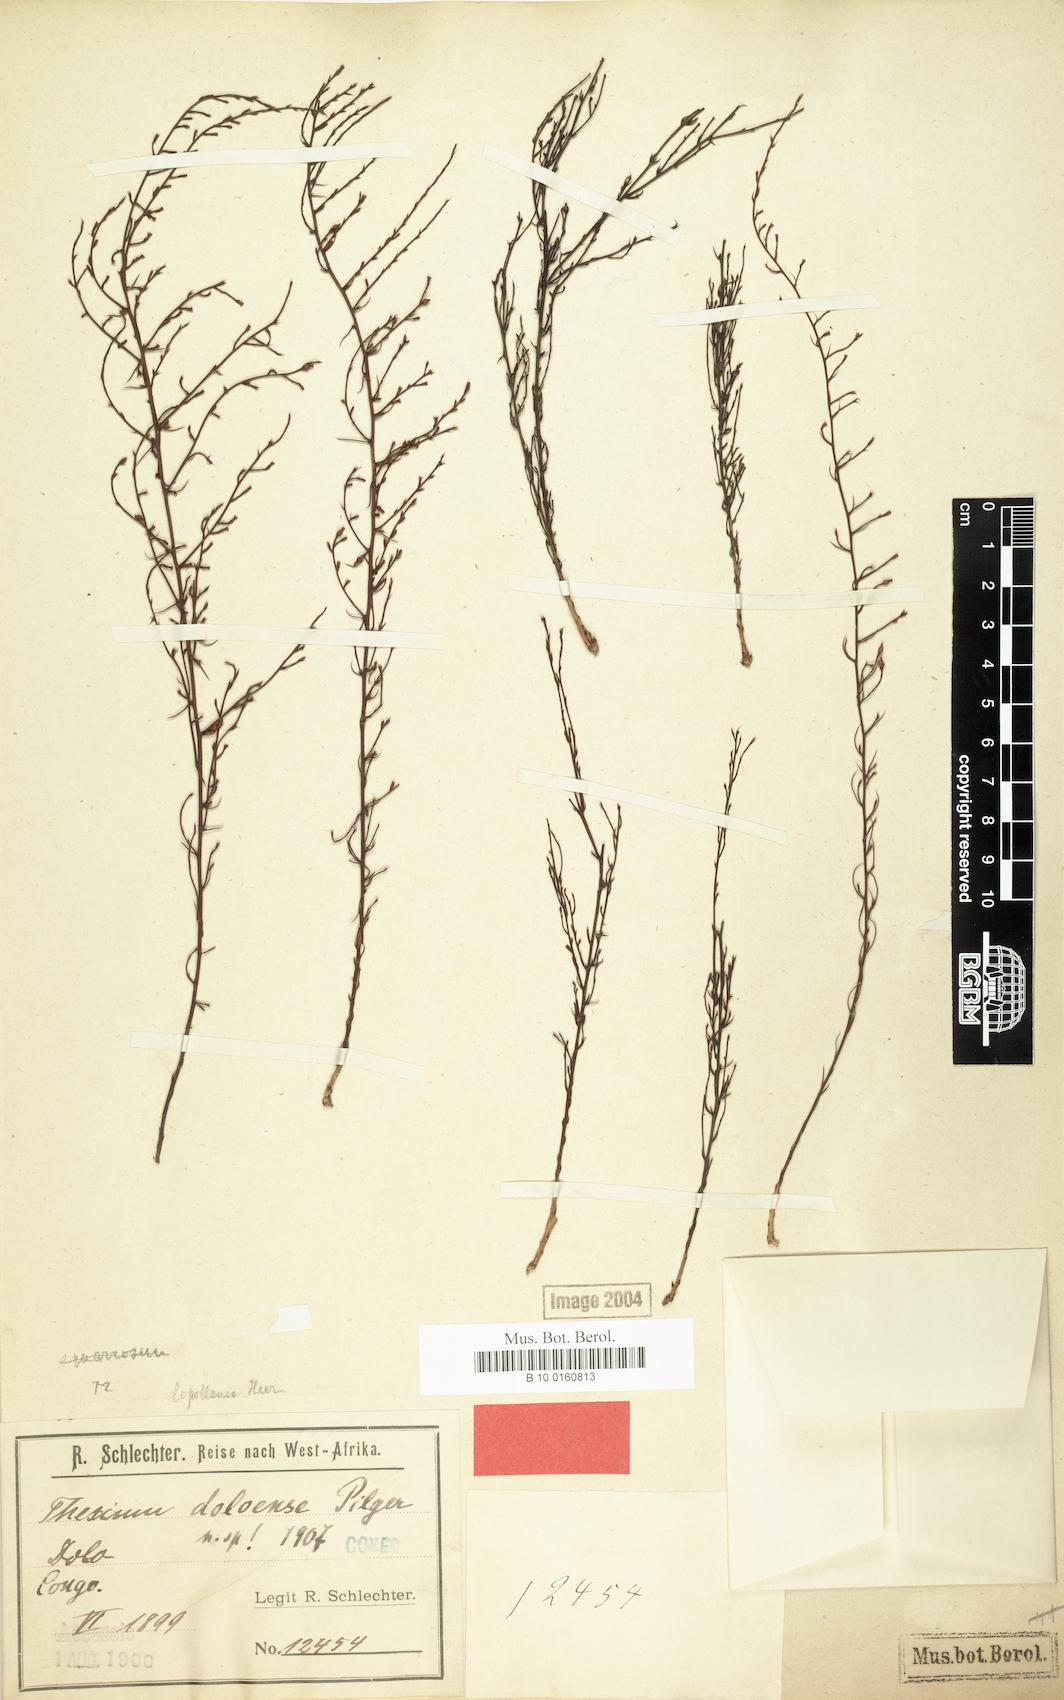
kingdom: Plantae
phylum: Tracheophyta
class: Magnoliopsida
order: Santalales
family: Thesiaceae
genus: Thesium
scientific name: Thesium doloense
